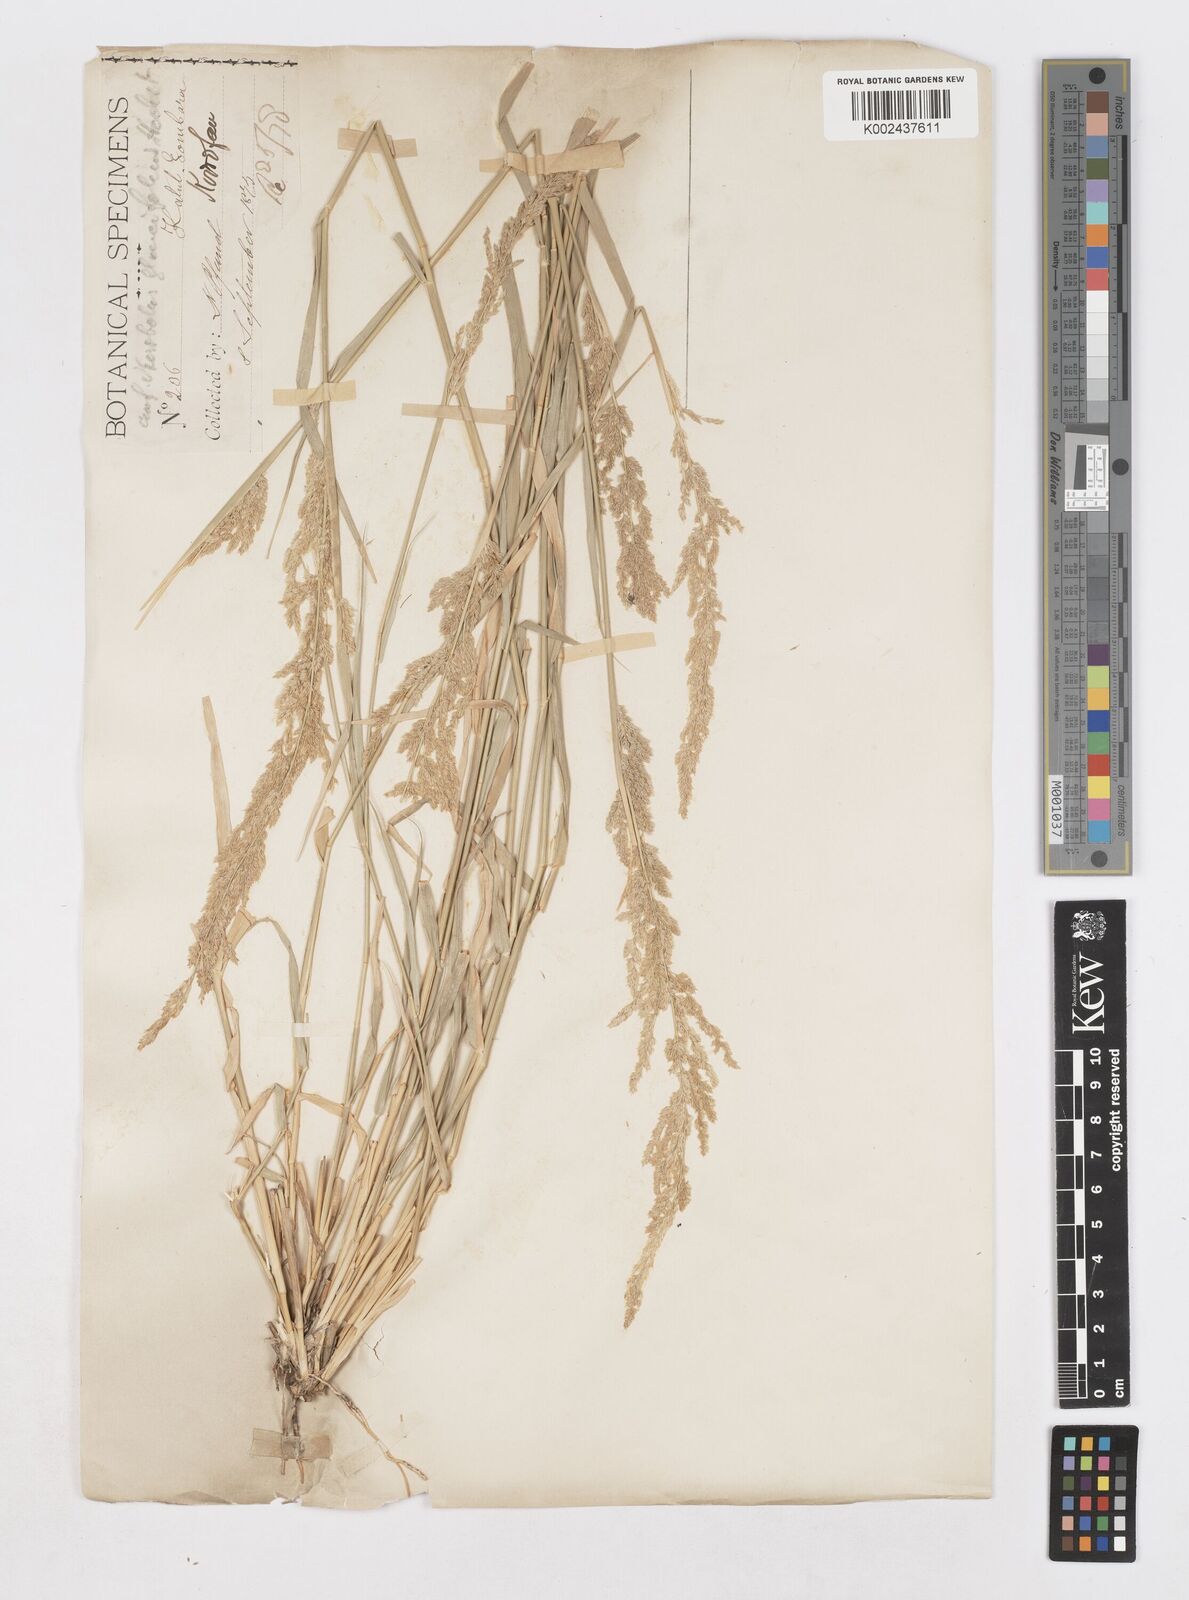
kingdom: Plantae
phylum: Tracheophyta
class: Liliopsida
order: Poales
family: Poaceae
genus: Sporobolus
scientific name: Sporobolus helvolus
